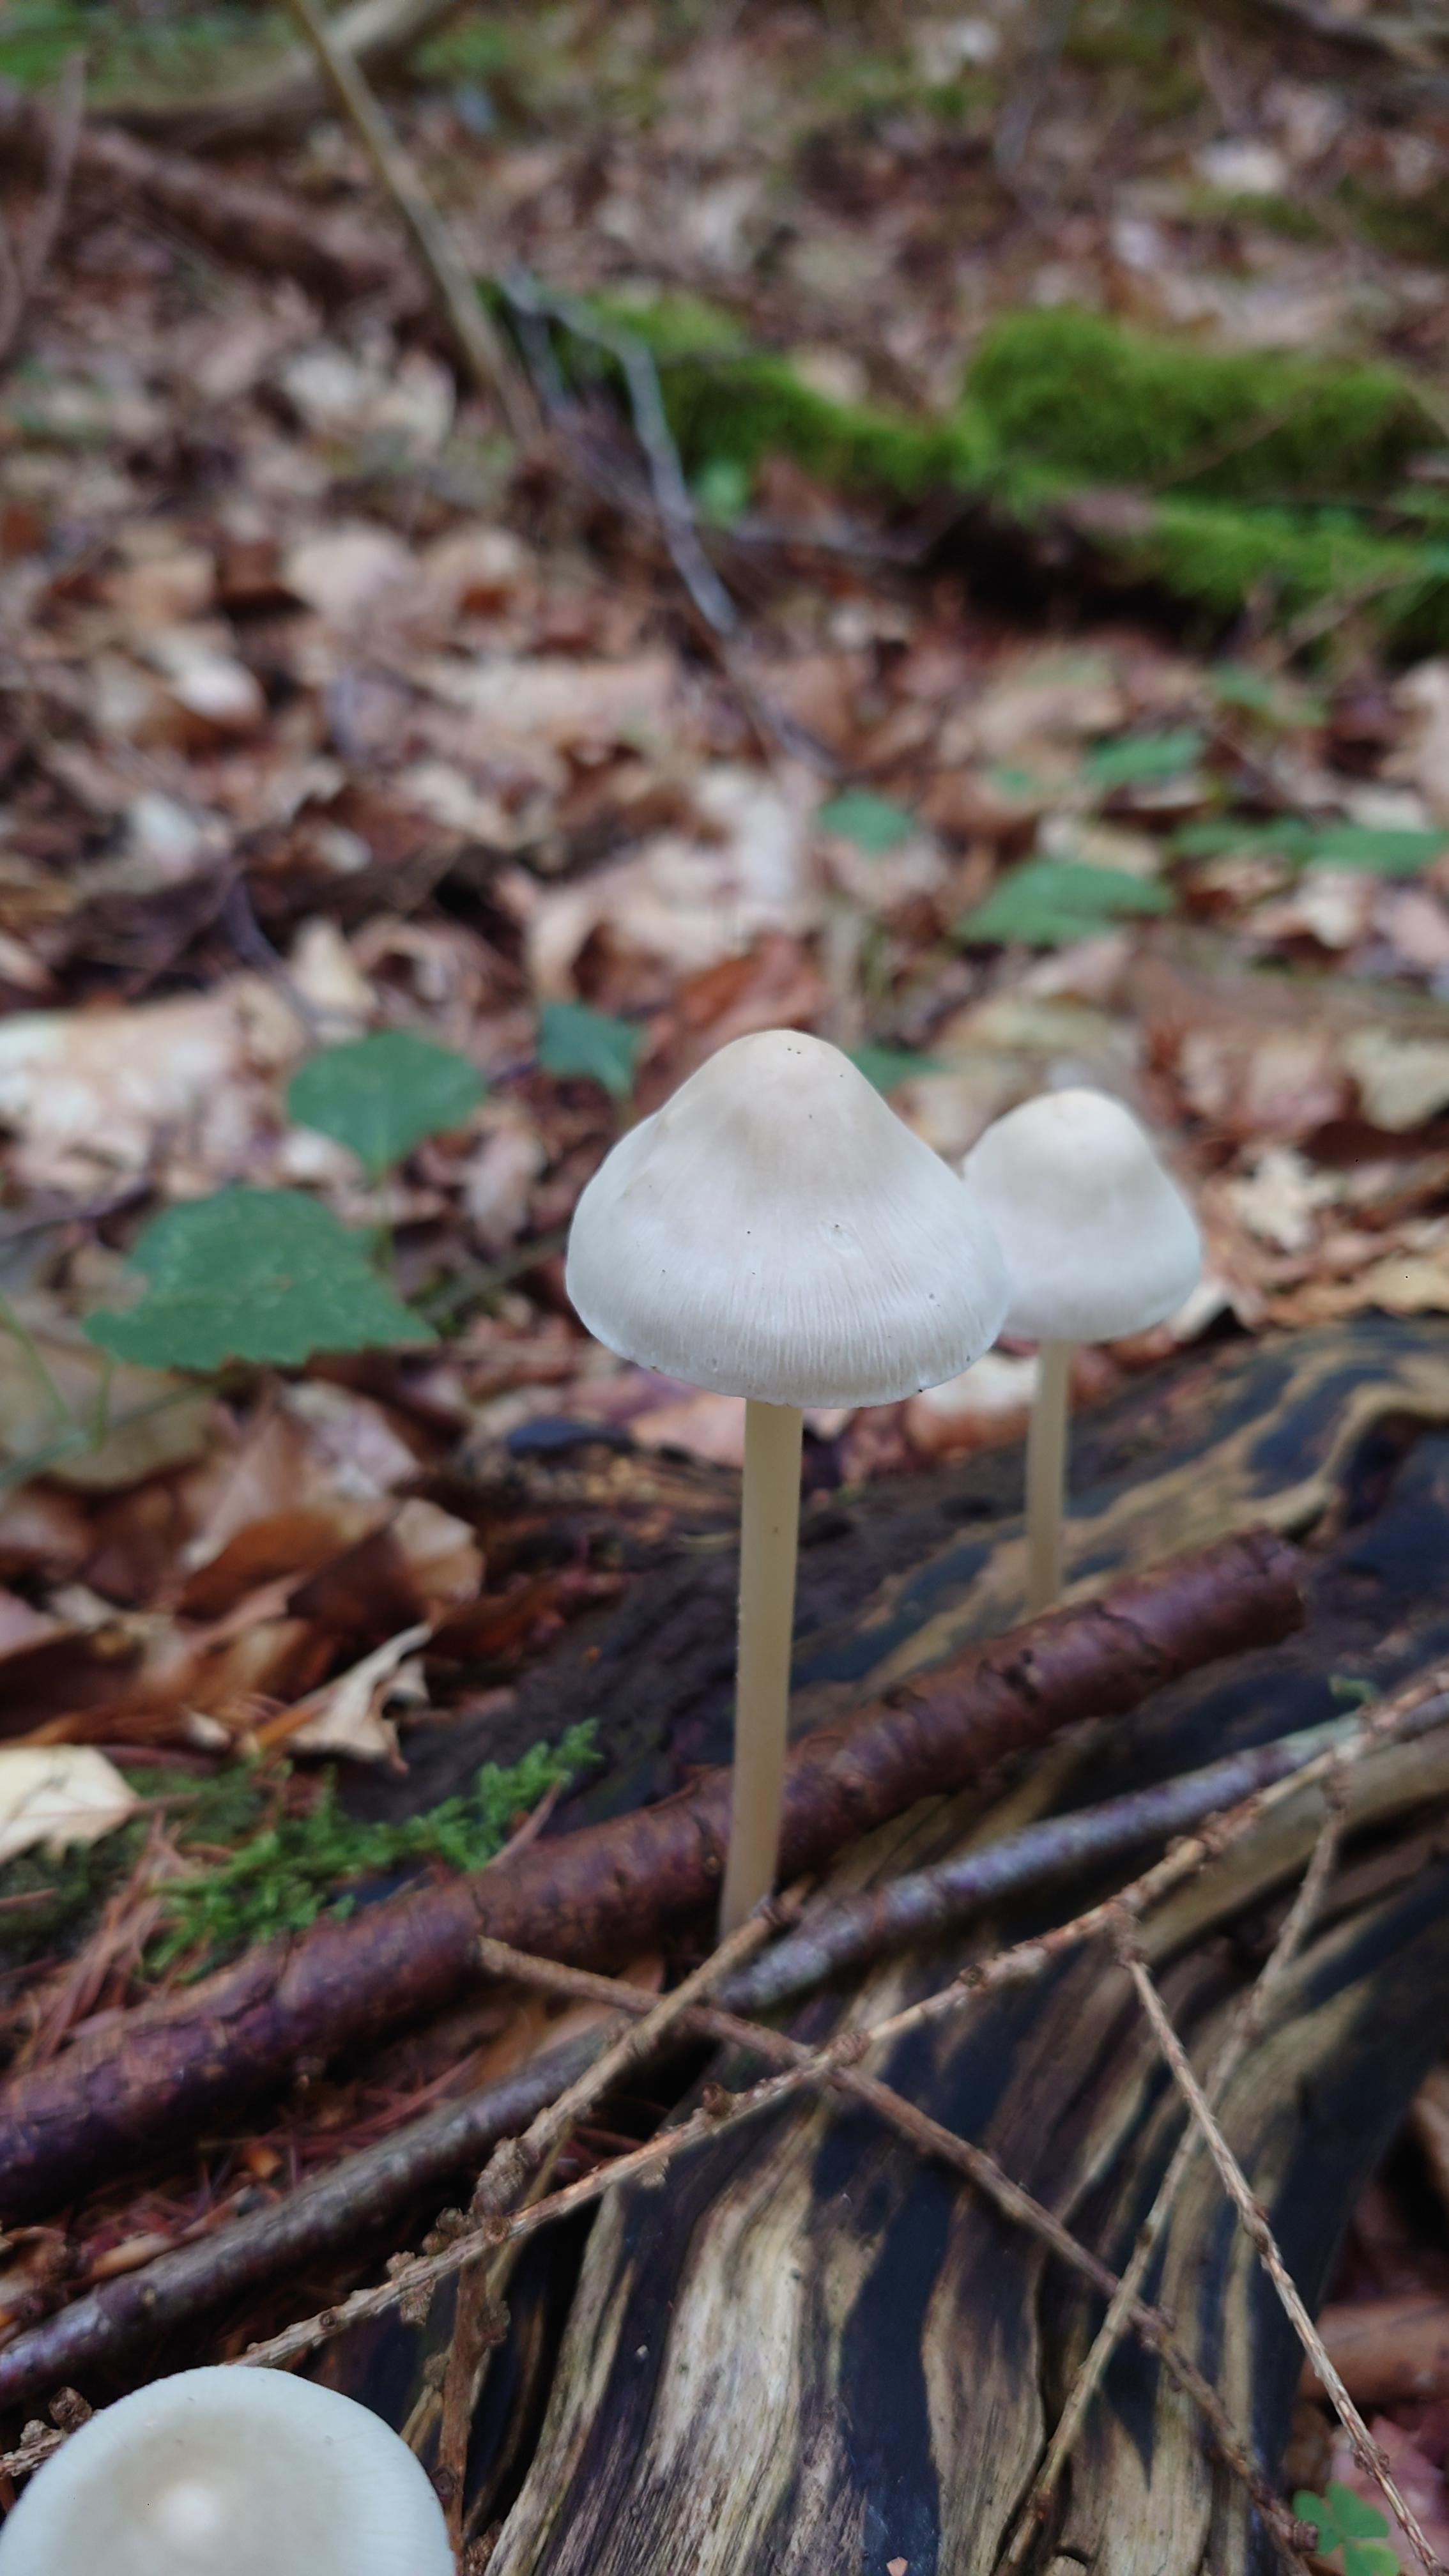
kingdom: Fungi
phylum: Basidiomycota
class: Agaricomycetes
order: Agaricales
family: Mycenaceae
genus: Mycena
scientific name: Mycena galericulata
